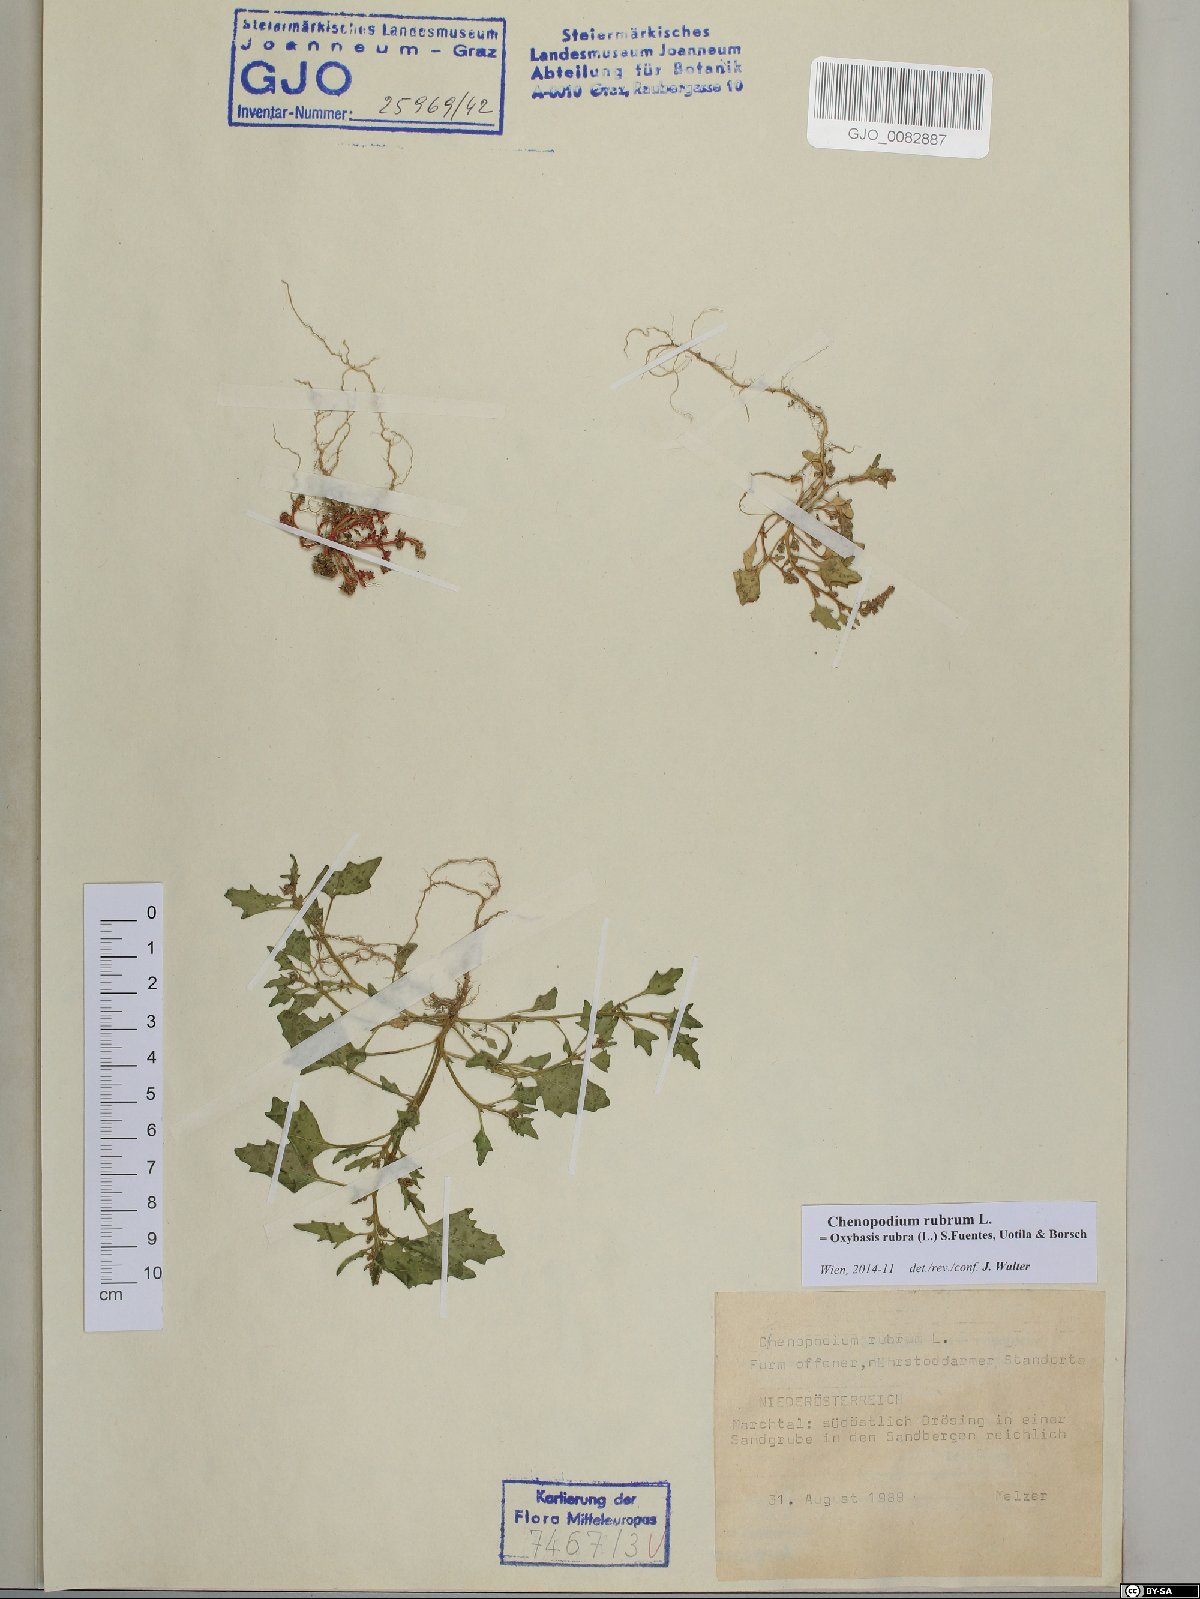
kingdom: Plantae
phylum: Tracheophyta
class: Magnoliopsida
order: Caryophyllales
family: Amaranthaceae
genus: Oxybasis
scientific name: Oxybasis rubra
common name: Red goosefoot
